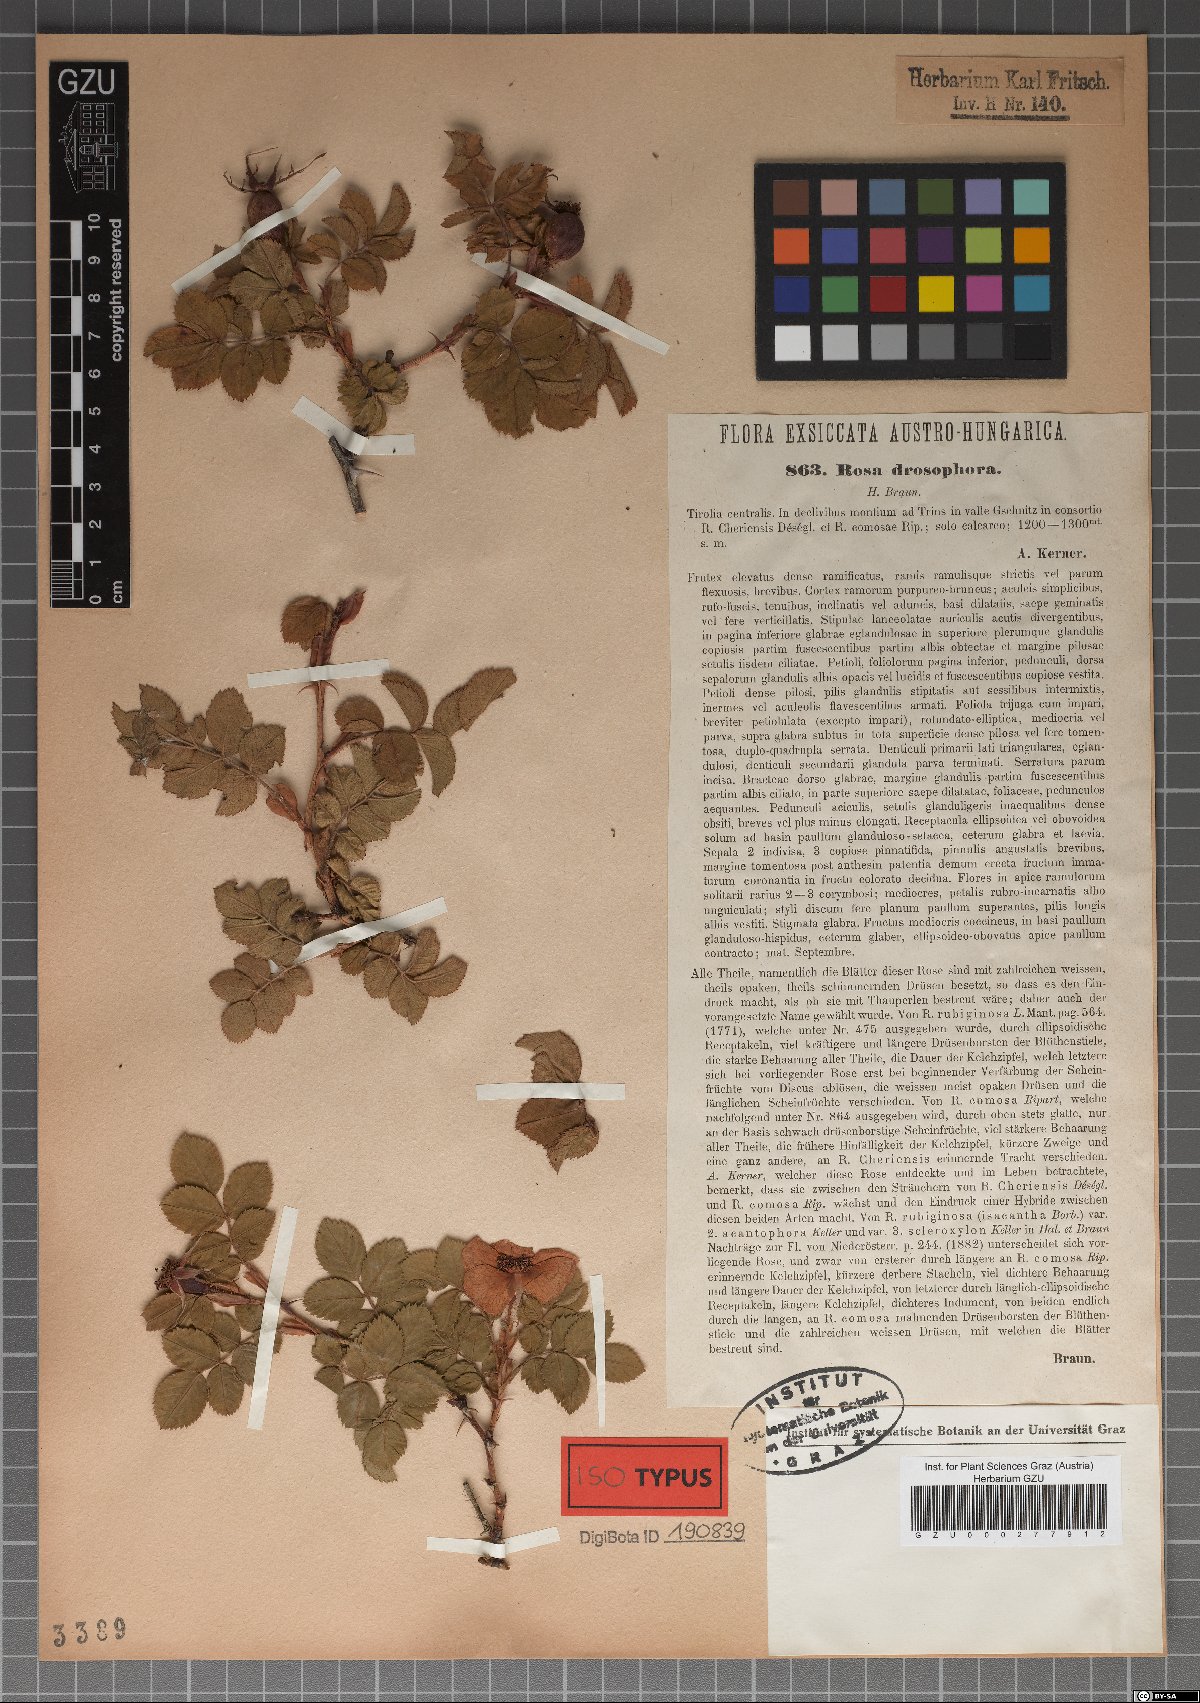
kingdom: Plantae
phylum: Tracheophyta
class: Magnoliopsida
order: Rosales
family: Rosaceae
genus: Rosa
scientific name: Rosa rubiginosa
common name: Sweet-briar
